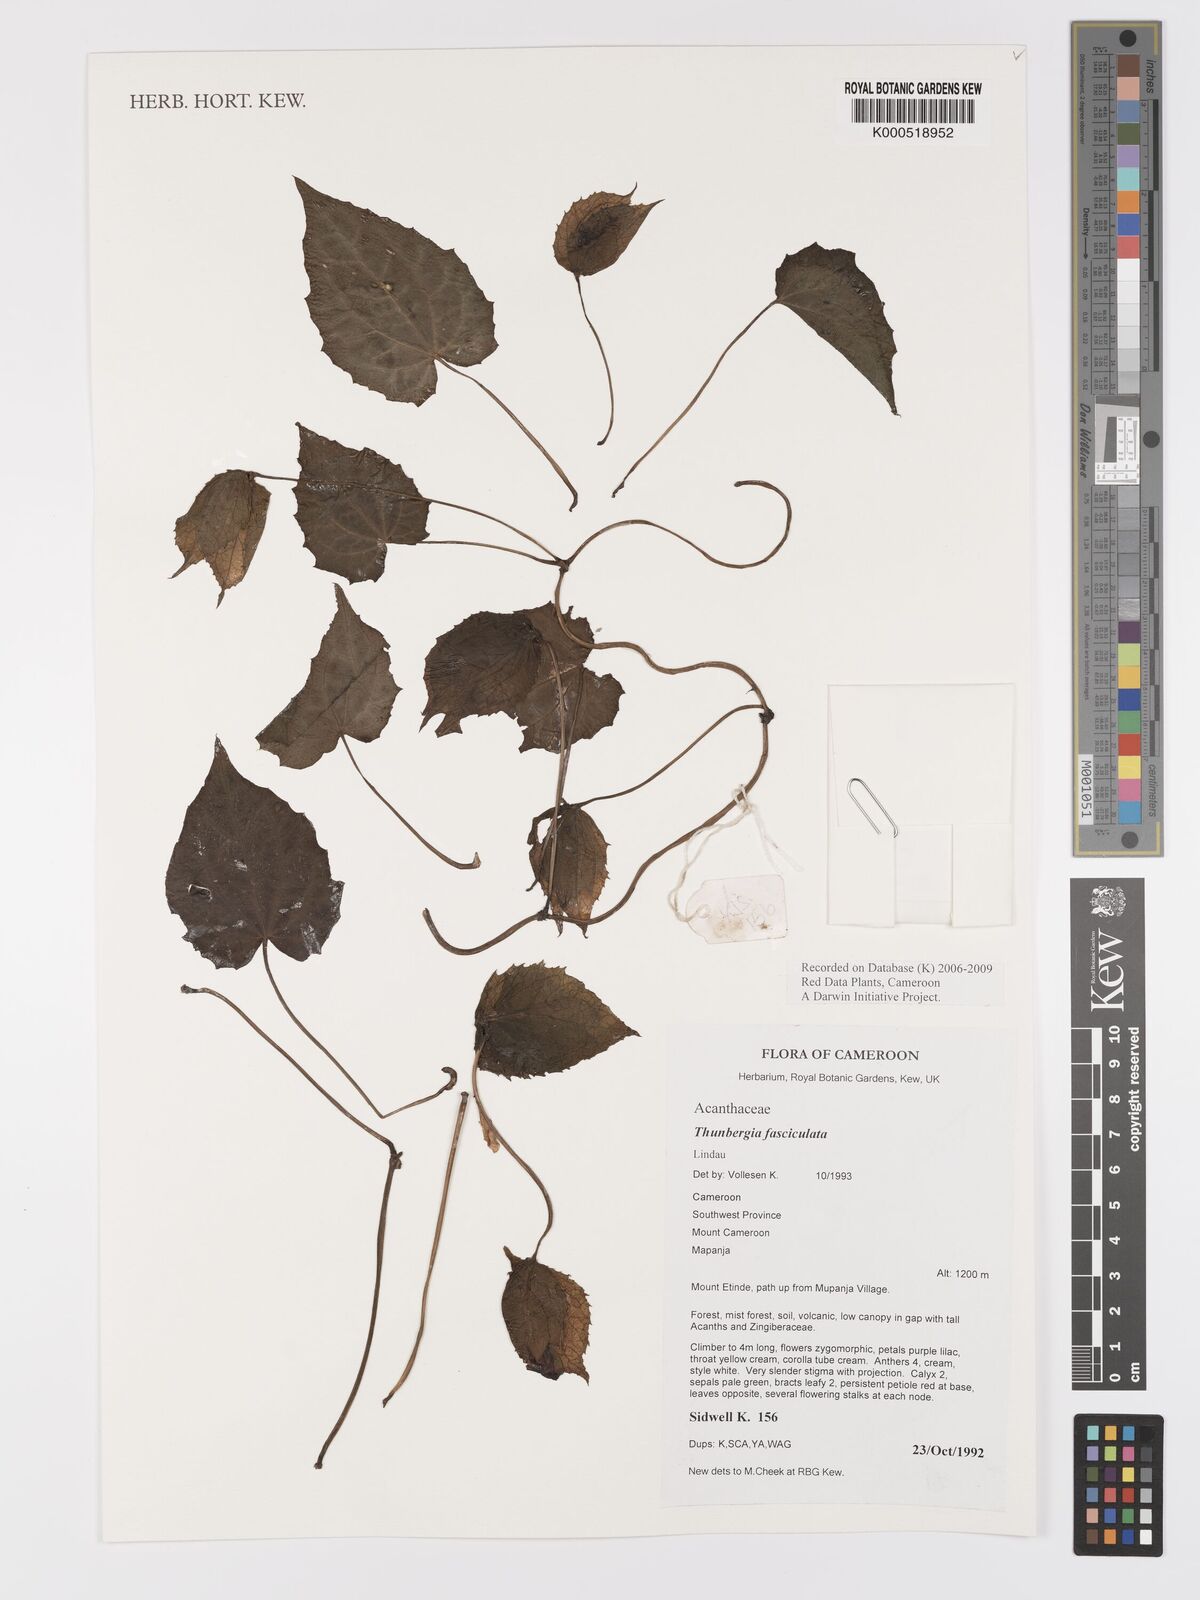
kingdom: Plantae
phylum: Tracheophyta
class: Magnoliopsida
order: Lamiales
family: Acanthaceae
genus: Thunbergia
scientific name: Thunbergia fasciculata
